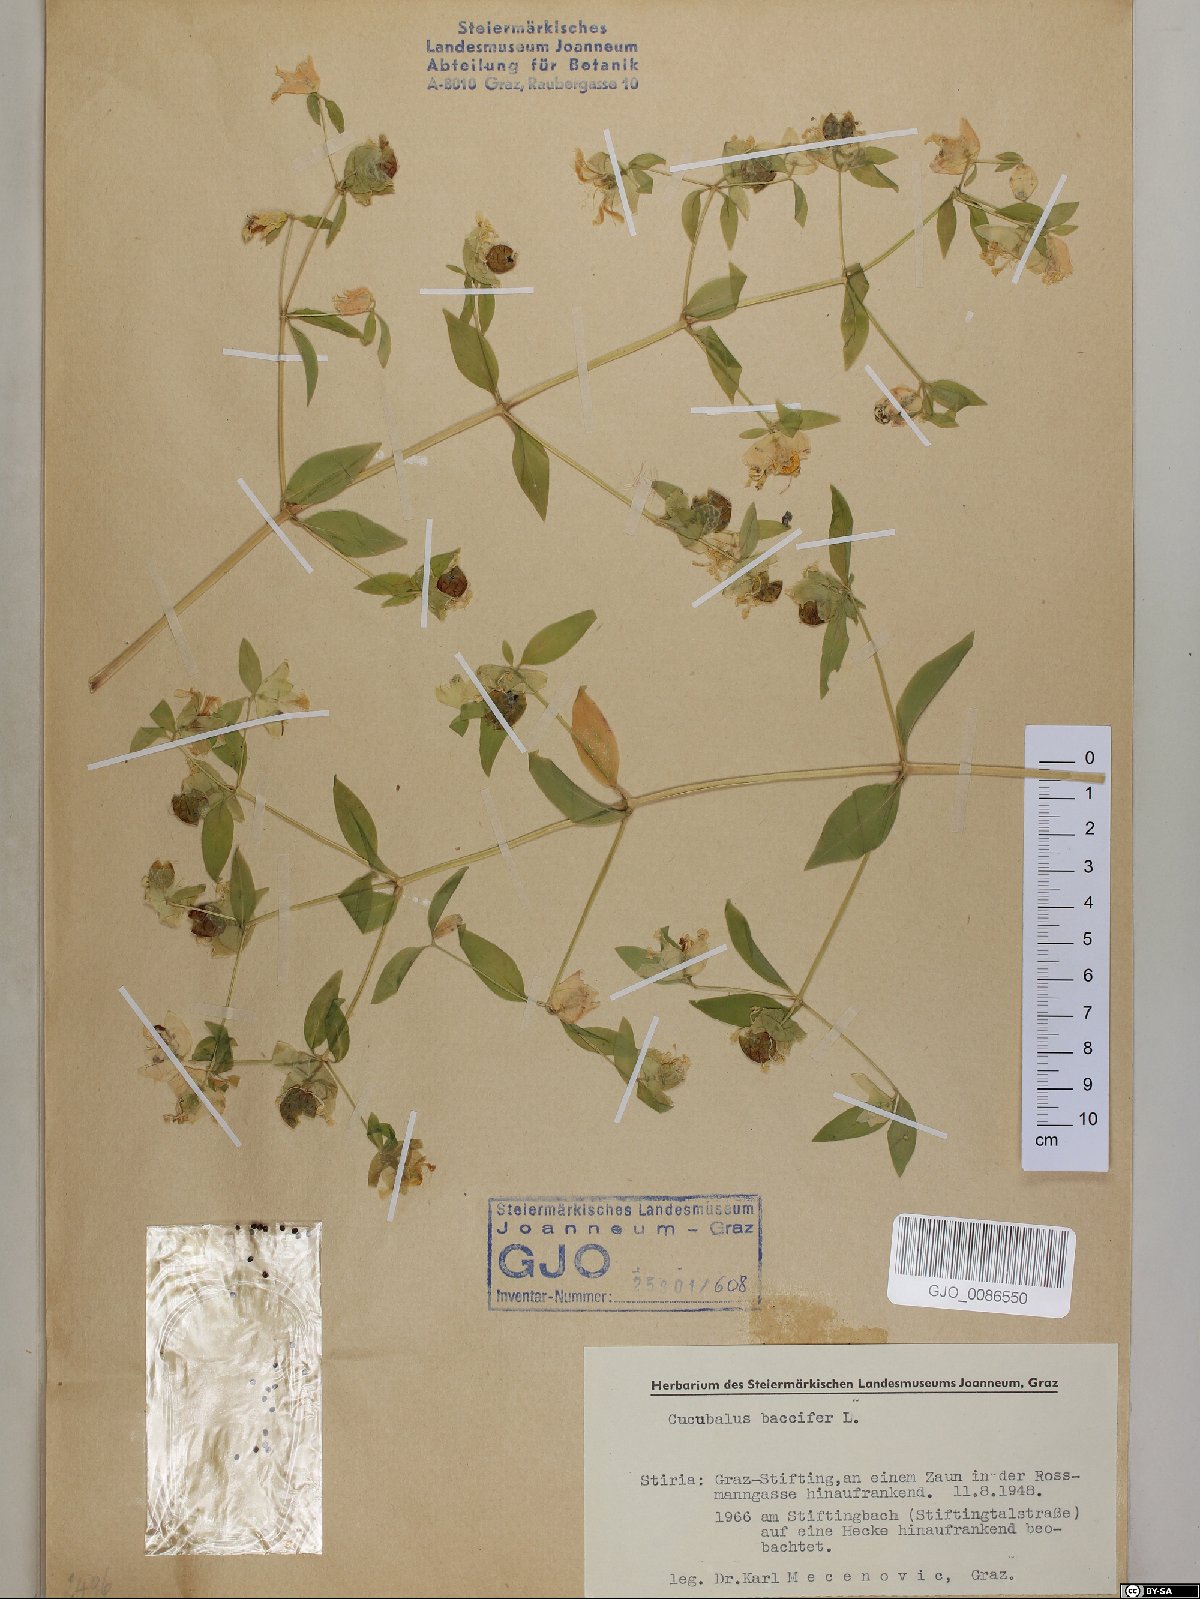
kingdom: Plantae
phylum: Tracheophyta
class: Magnoliopsida
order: Caryophyllales
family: Caryophyllaceae
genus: Silene
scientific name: Silene baccifera
